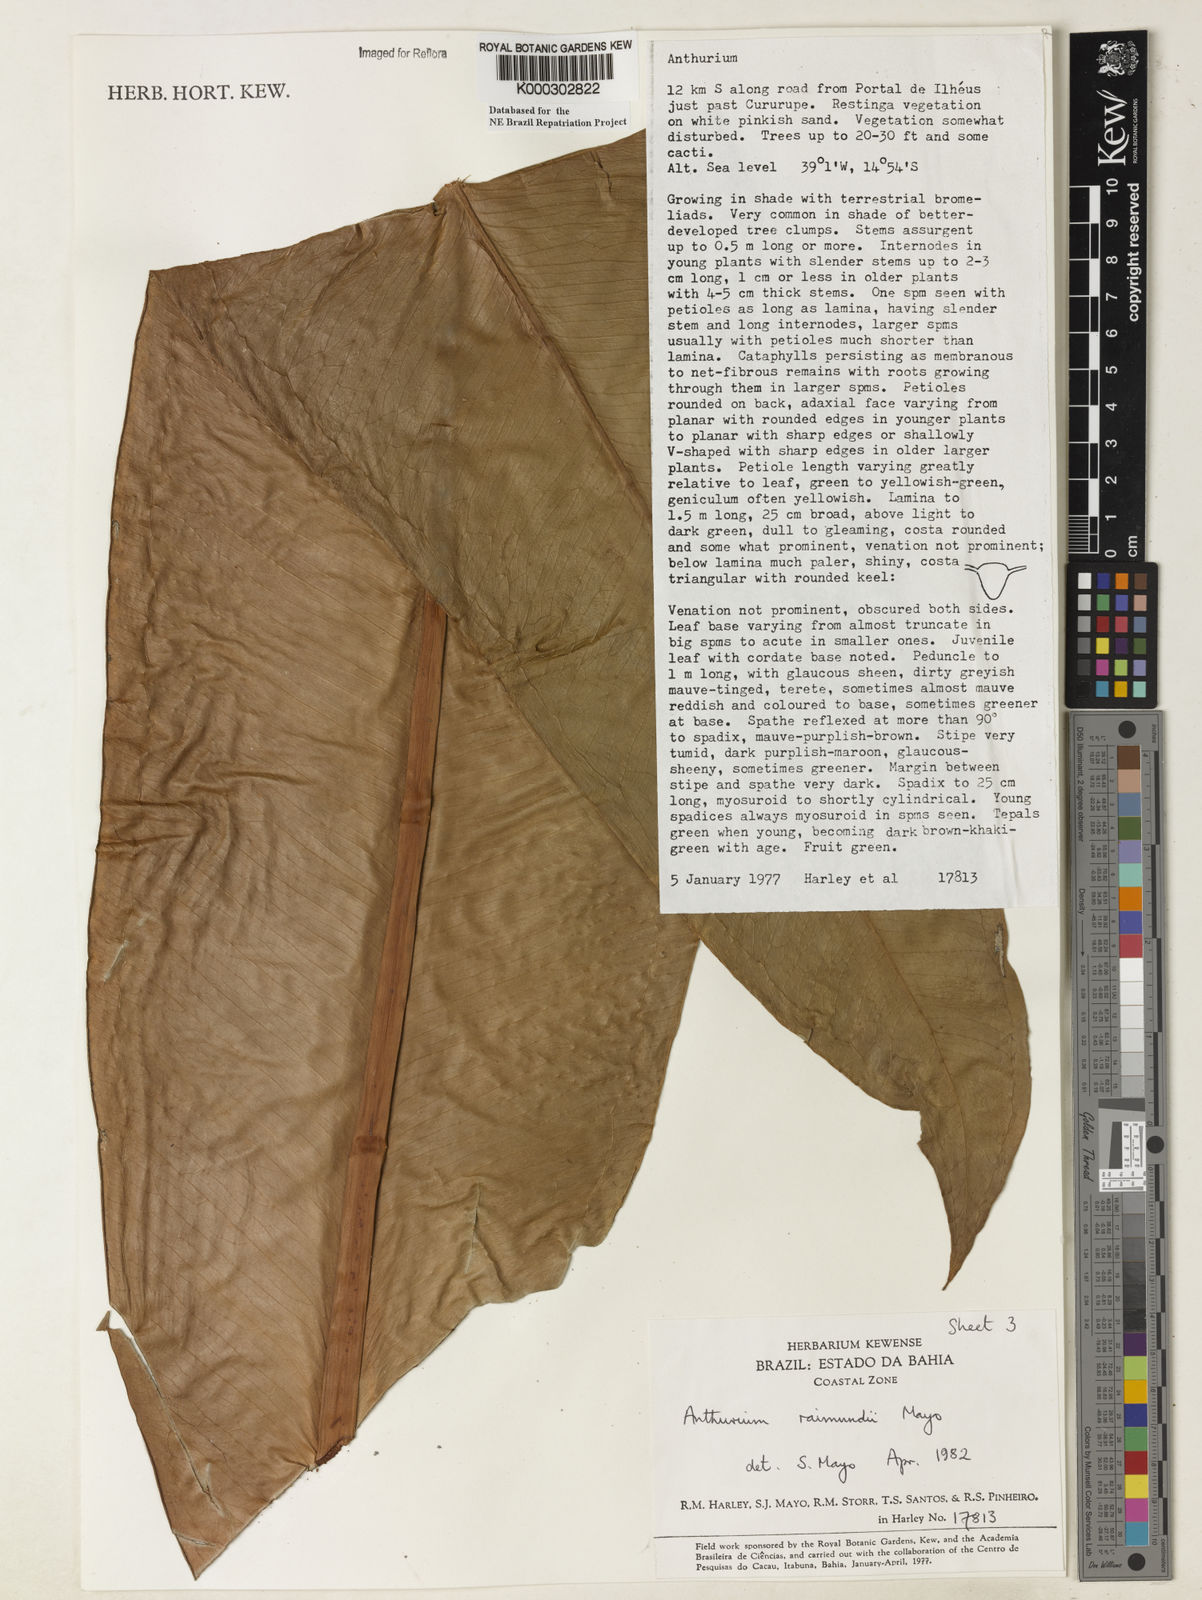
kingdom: Plantae
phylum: Tracheophyta
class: Liliopsida
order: Alismatales
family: Araceae
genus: Anthurium
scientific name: Anthurium raimundii
